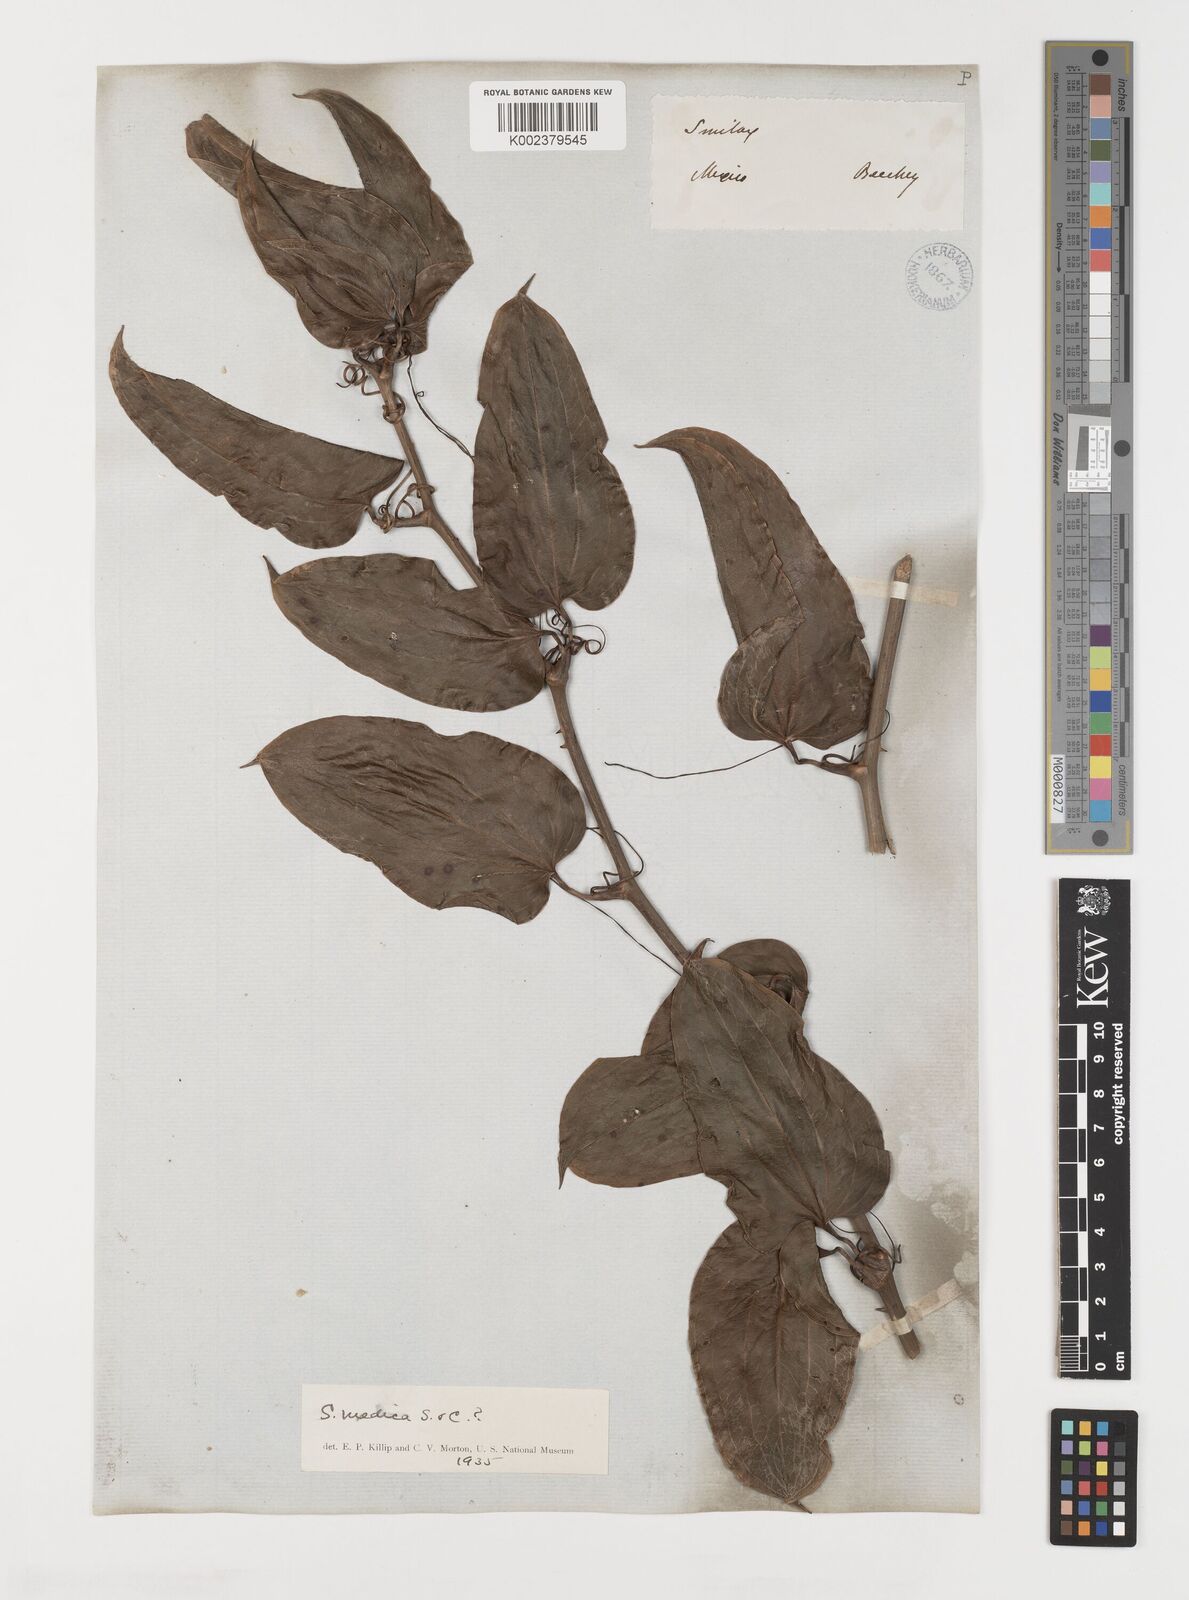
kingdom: Plantae
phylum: Tracheophyta
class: Liliopsida
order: Liliales
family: Smilacaceae
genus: Smilax
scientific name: Smilax aristolochiifolia
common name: Sarsaparilla
